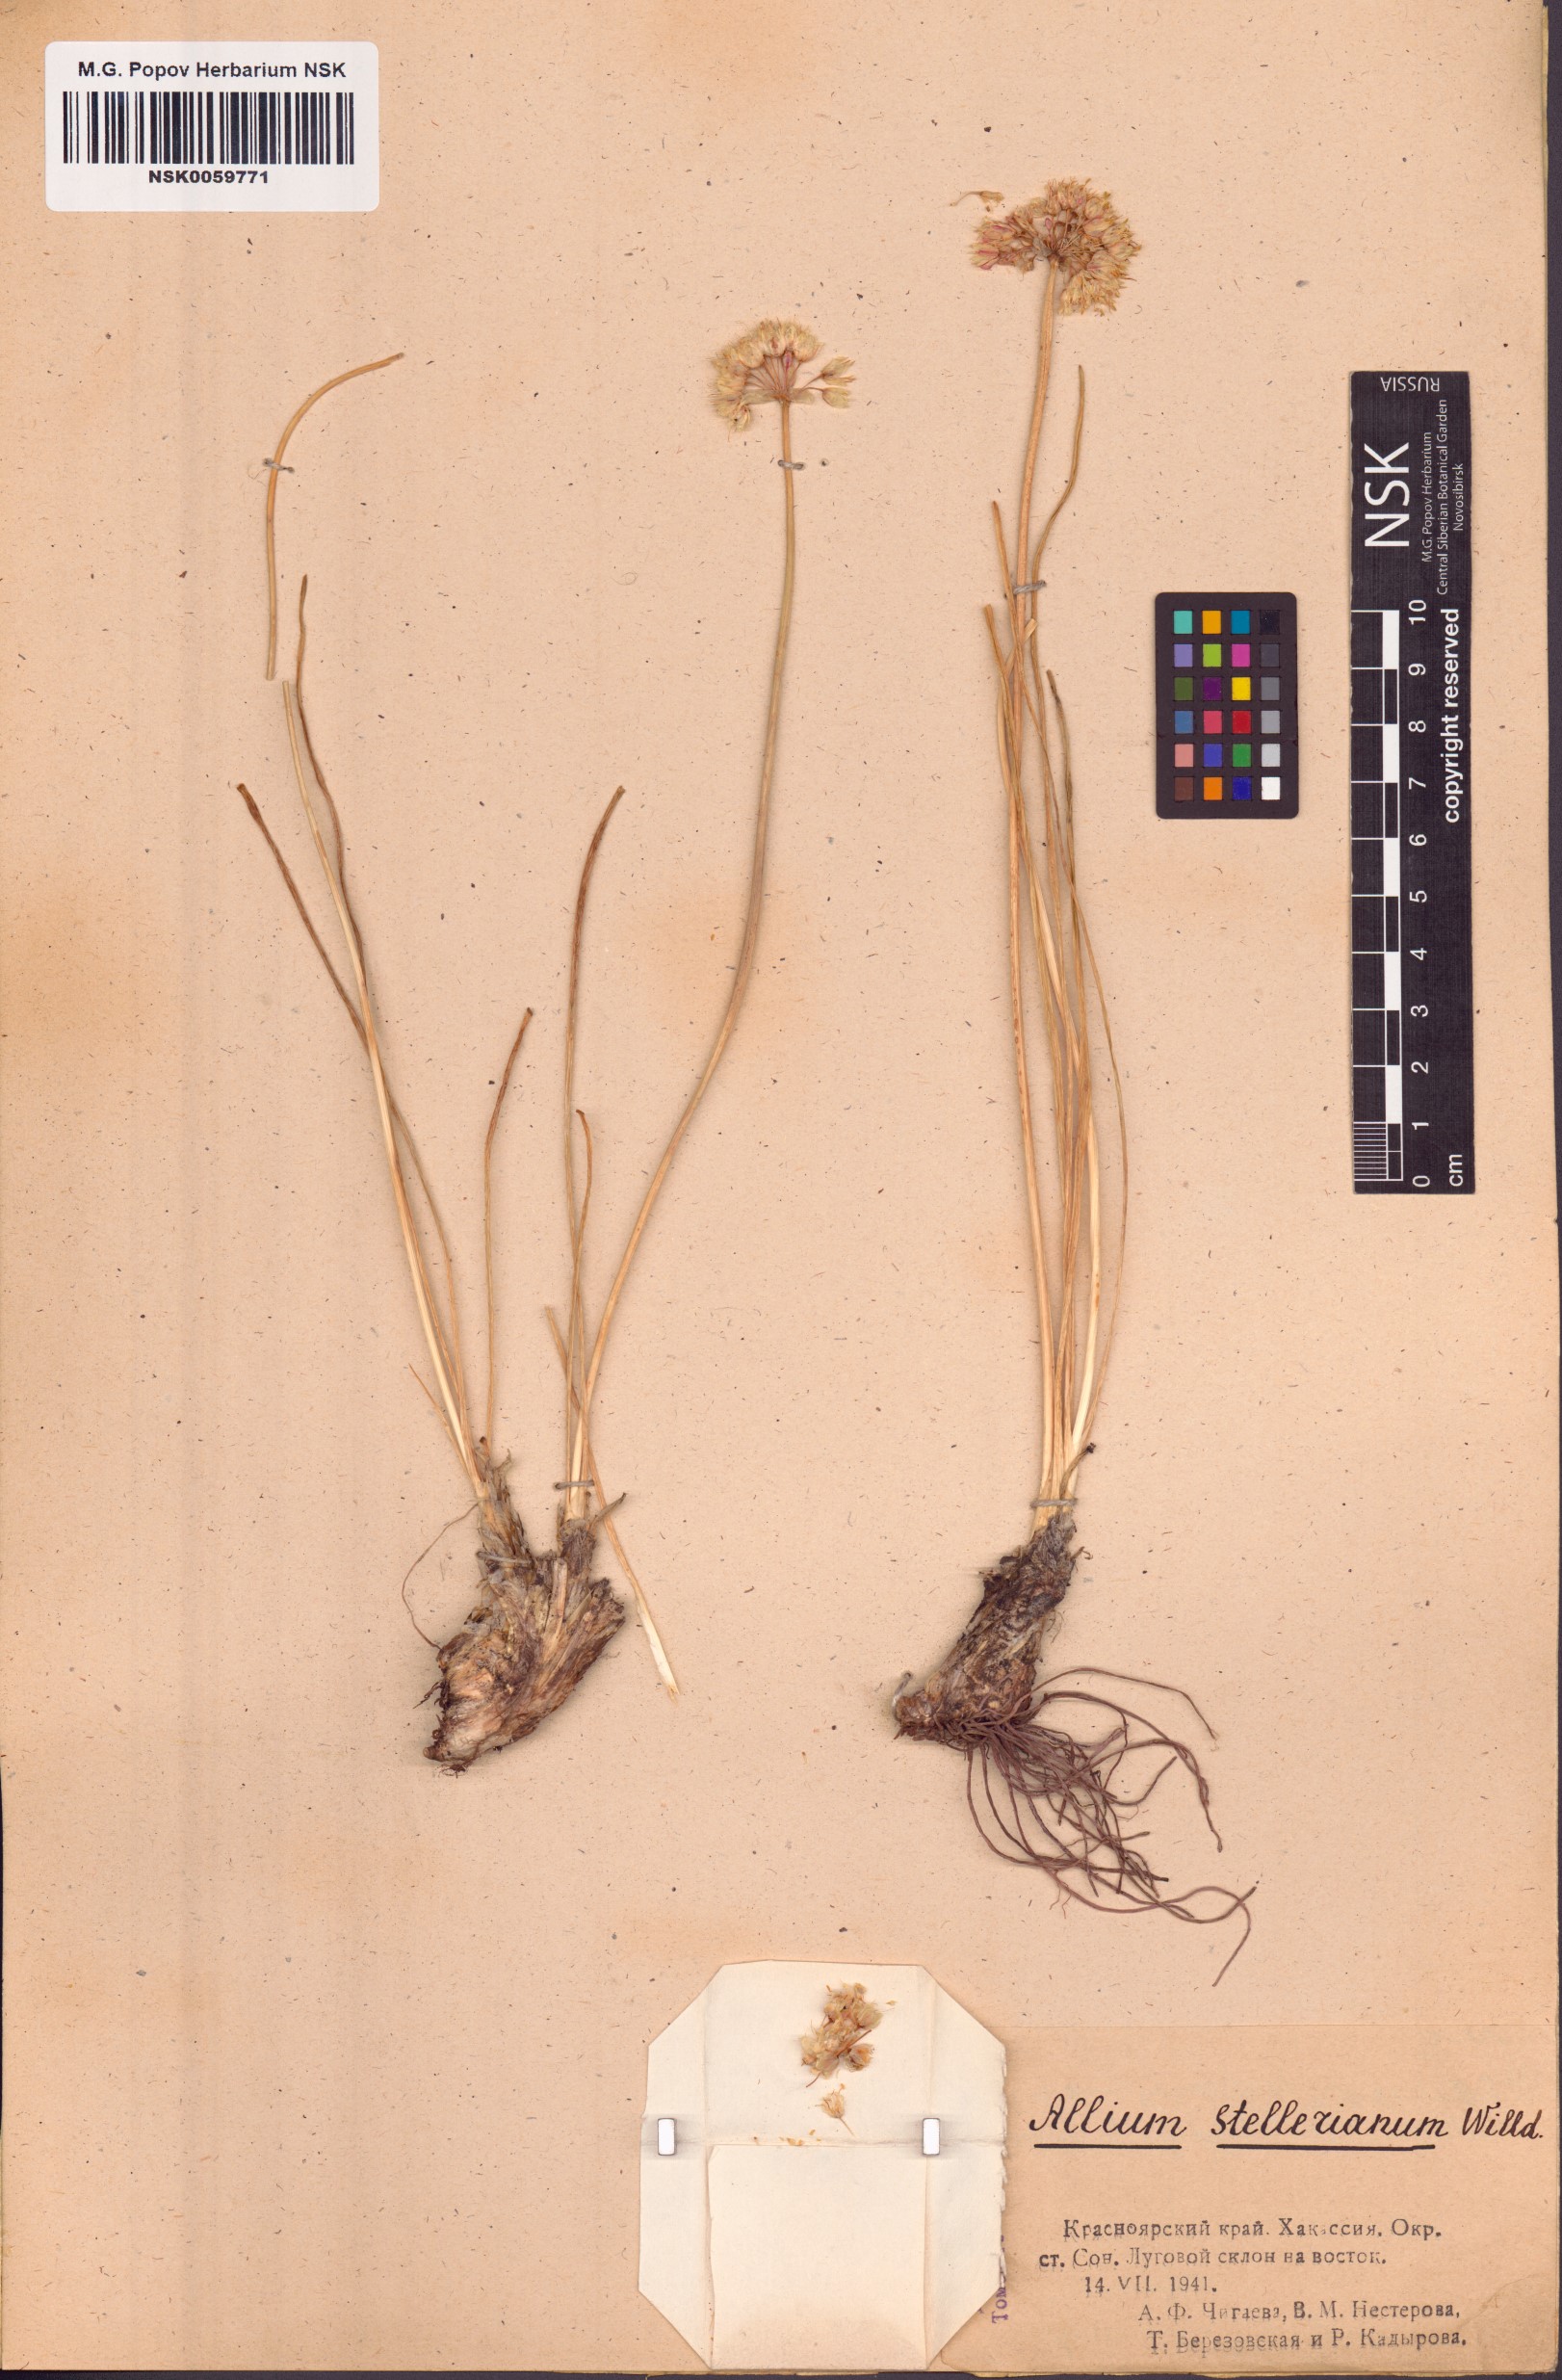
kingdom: Plantae
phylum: Tracheophyta
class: Liliopsida
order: Asparagales
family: Amaryllidaceae
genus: Allium
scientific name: Allium stellerianum
